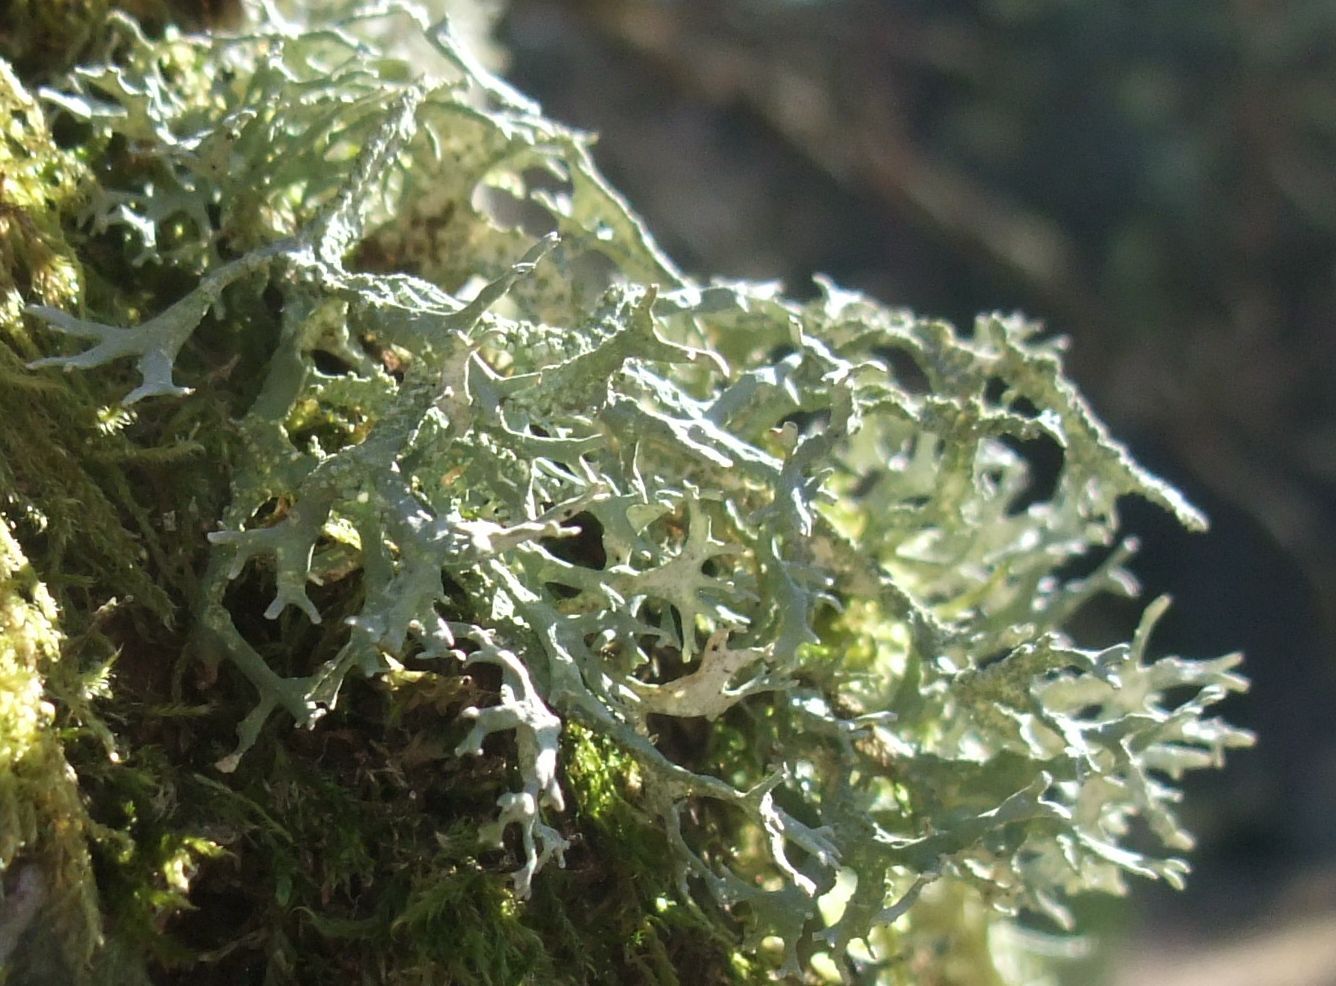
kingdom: Fungi
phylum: Ascomycota
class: Lecanoromycetes
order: Lecanorales
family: Parmeliaceae
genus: Evernia
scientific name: Evernia prunastri
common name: almindelig slåenlav
